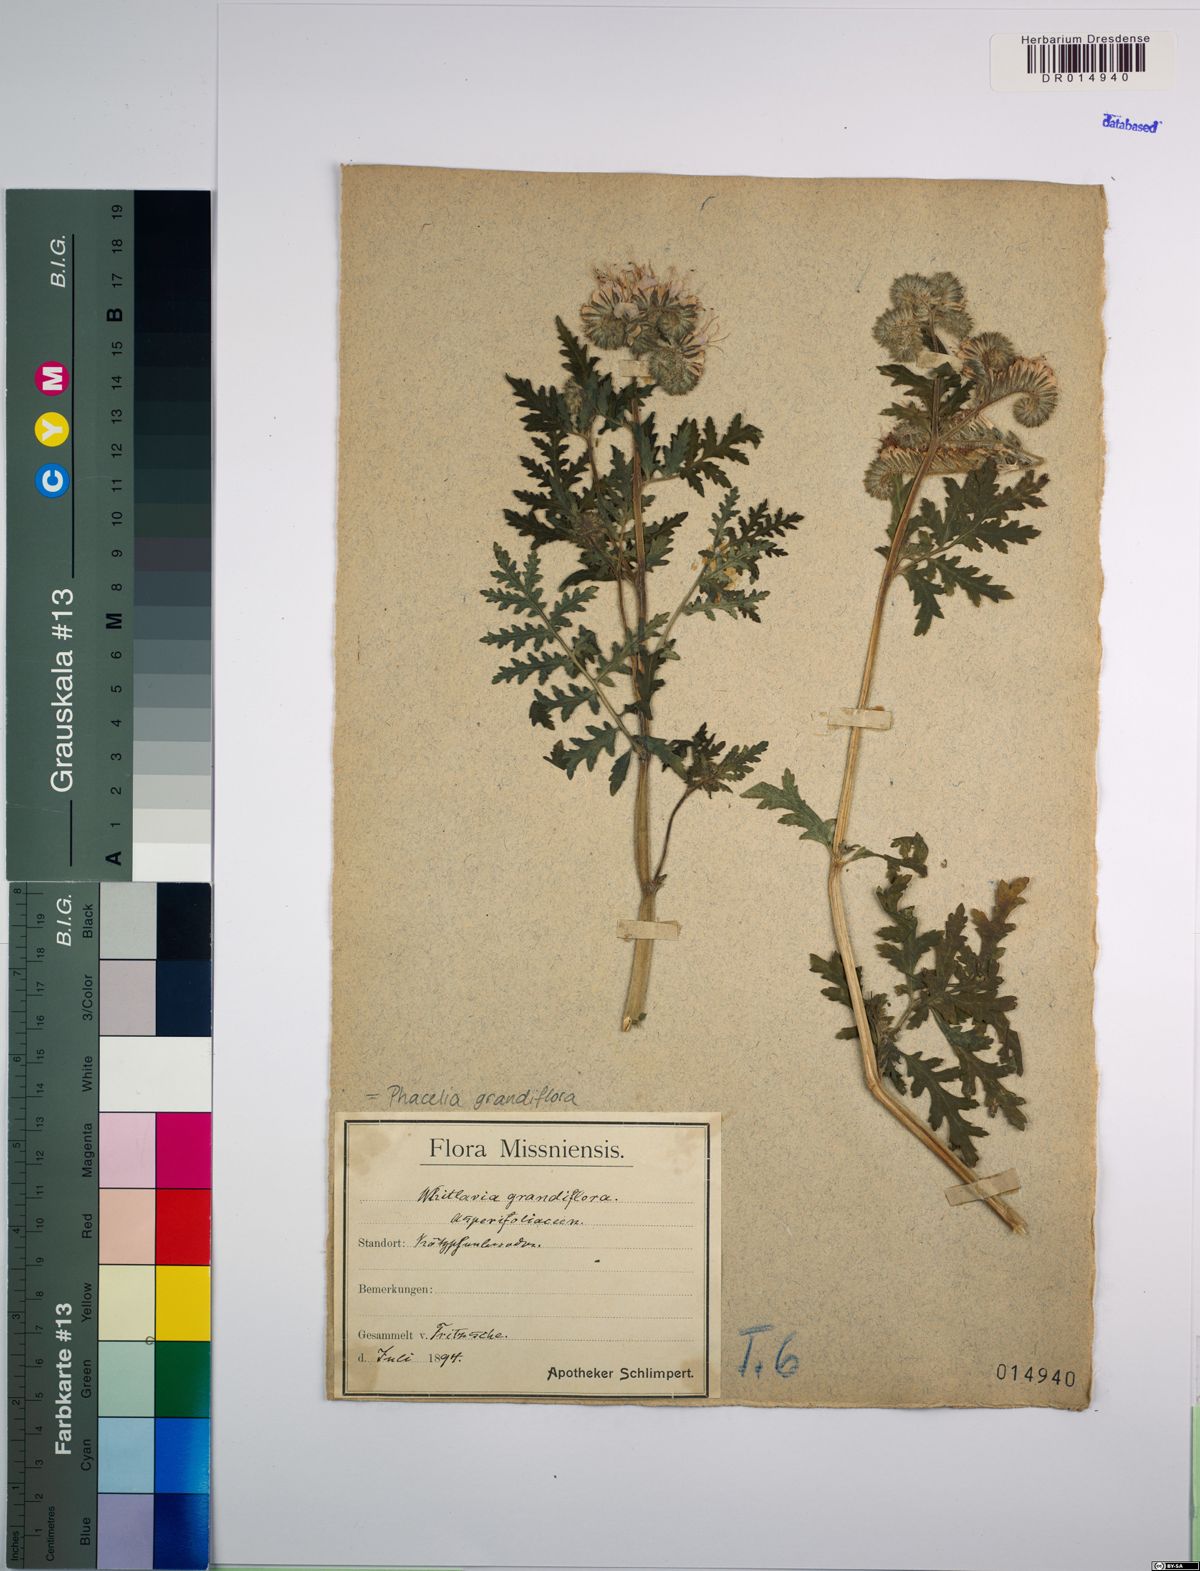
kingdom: Plantae
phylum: Tracheophyta
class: Magnoliopsida
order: Boraginales
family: Hydrophyllaceae
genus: Phacelia
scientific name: Phacelia grandiflora
